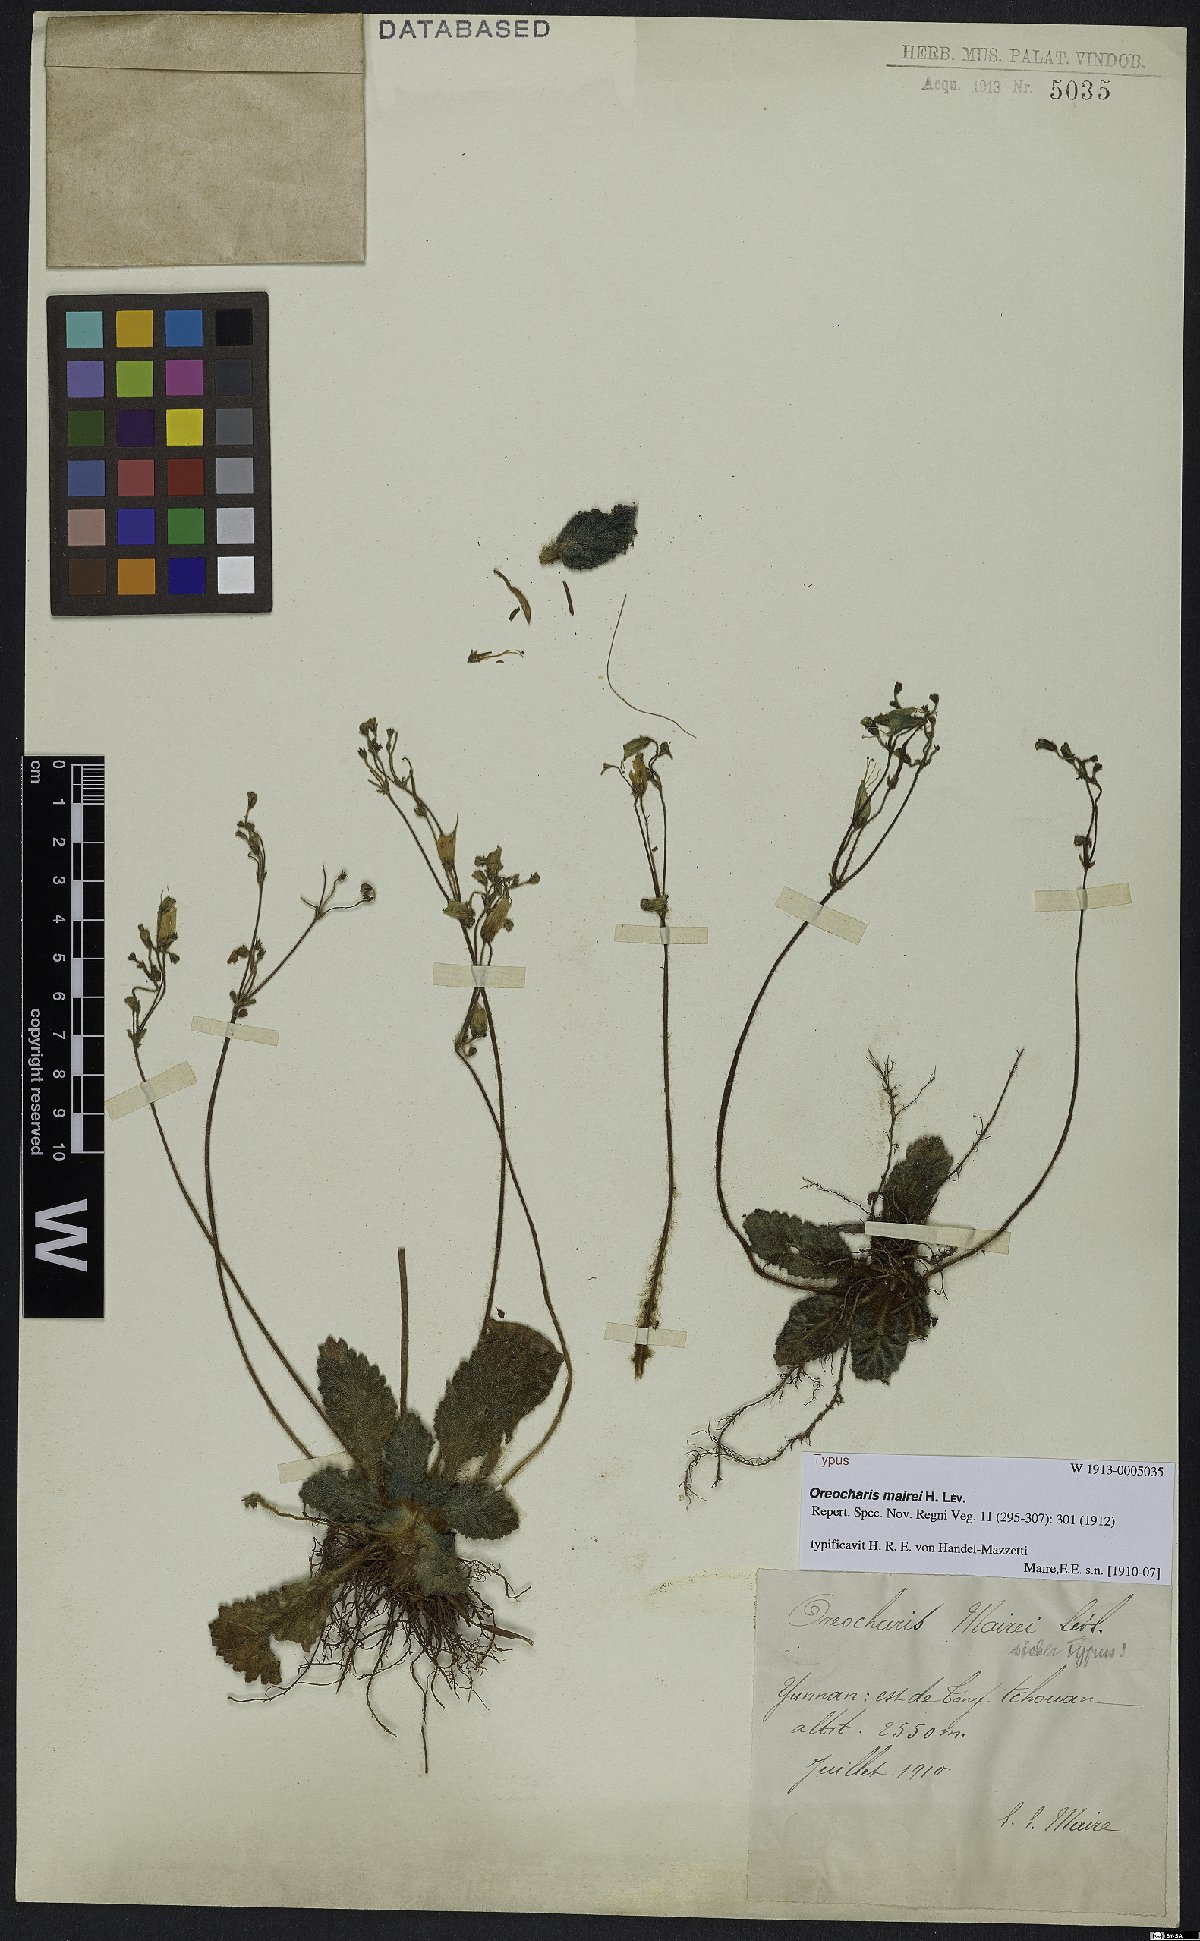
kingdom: Plantae
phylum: Tracheophyta
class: Magnoliopsida
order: Lamiales
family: Gesneriaceae
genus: Oreocharis
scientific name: Oreocharis mairei
